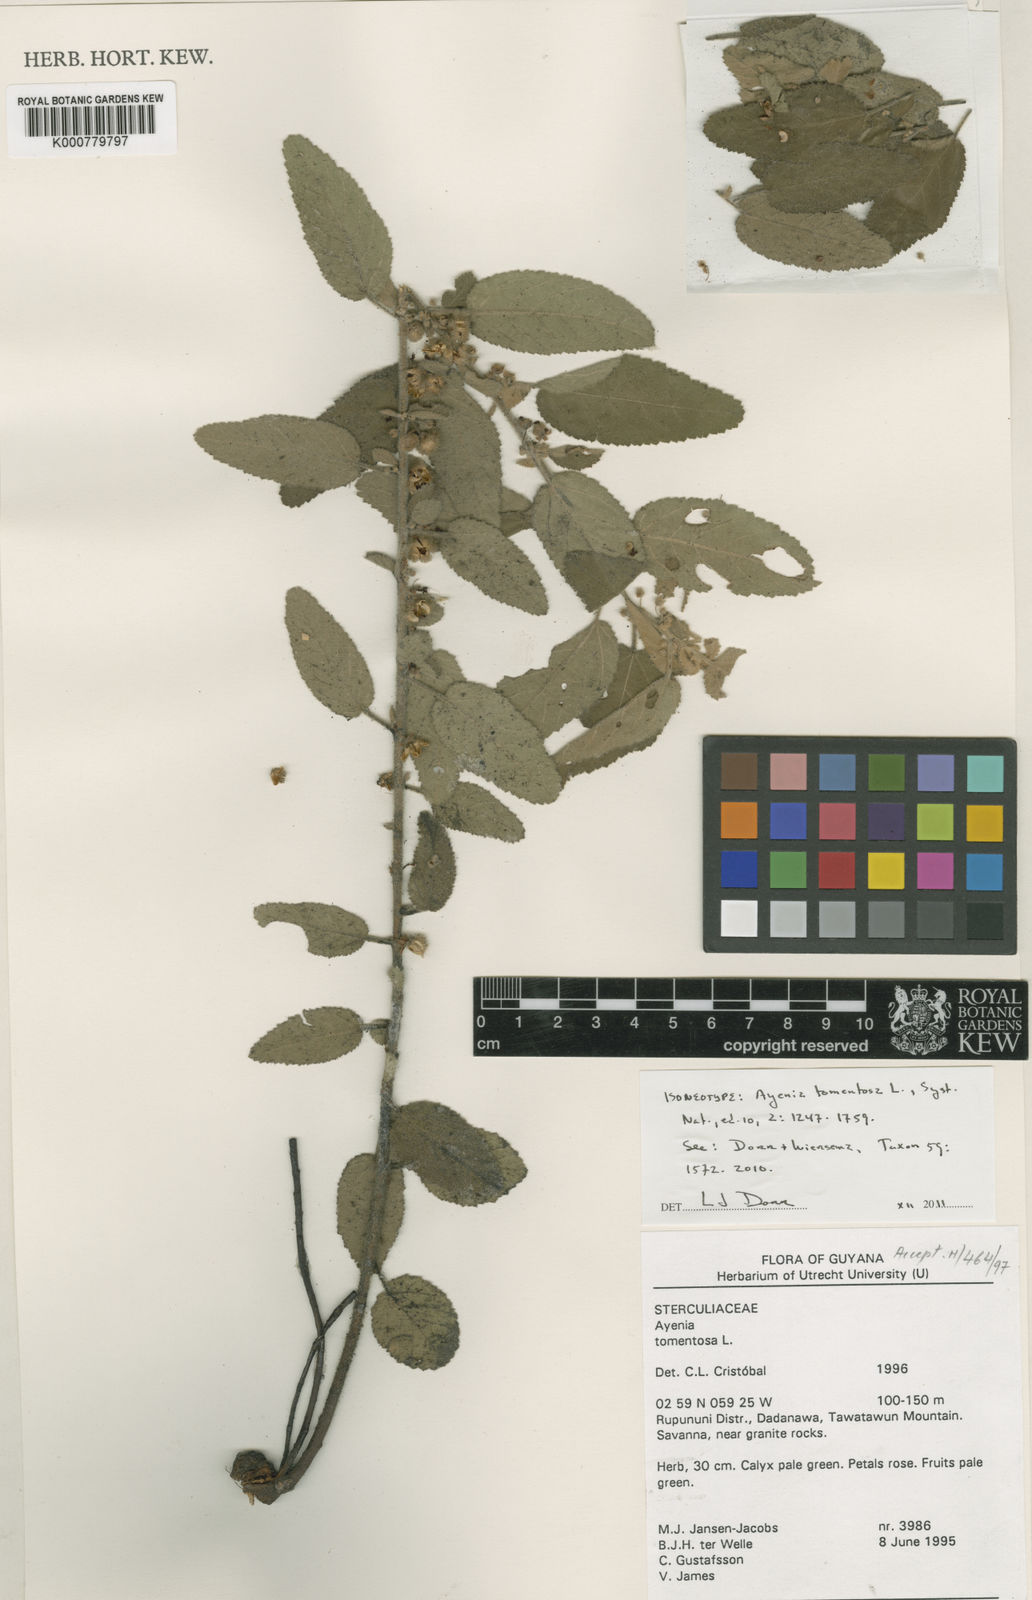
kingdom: Plantae
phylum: Tracheophyta
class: Magnoliopsida
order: Malvales
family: Malvaceae
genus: Ayenia
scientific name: Ayenia tomentosa
